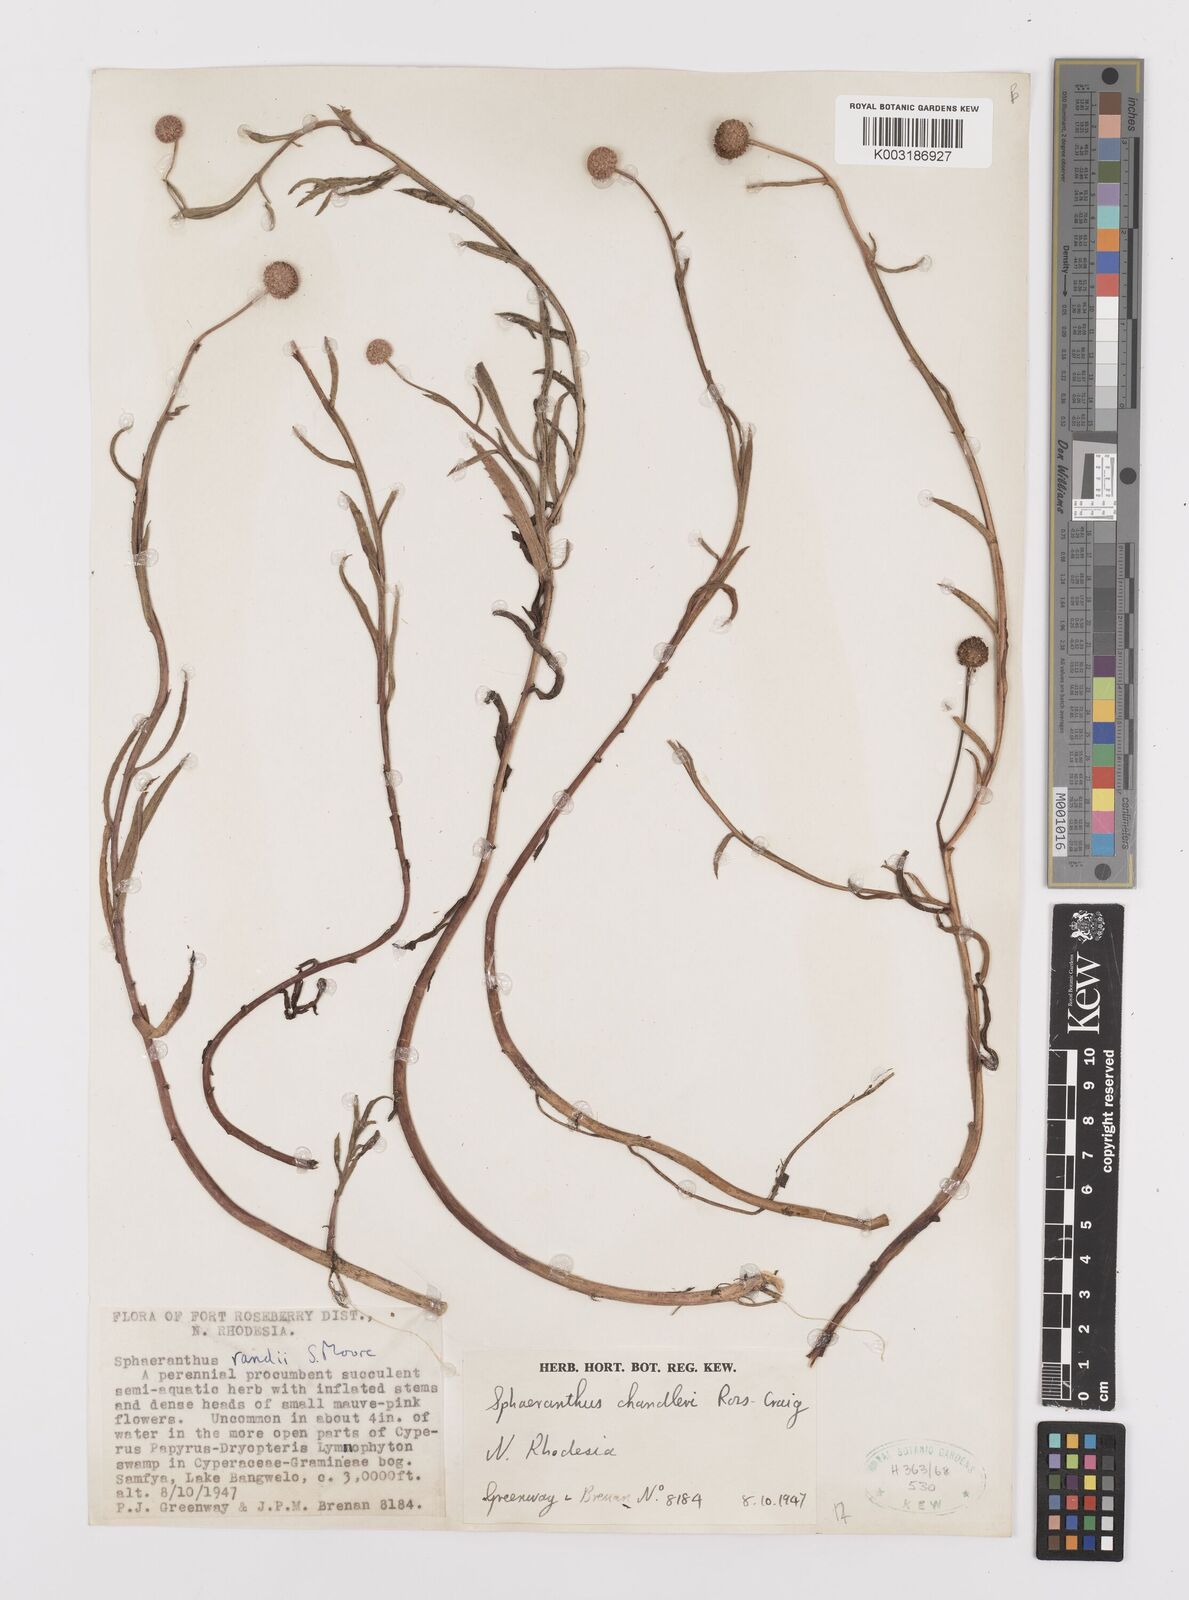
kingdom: Plantae
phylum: Tracheophyta
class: Magnoliopsida
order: Asterales
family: Asteraceae
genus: Sphaeranthus
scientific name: Sphaeranthus chandleri
